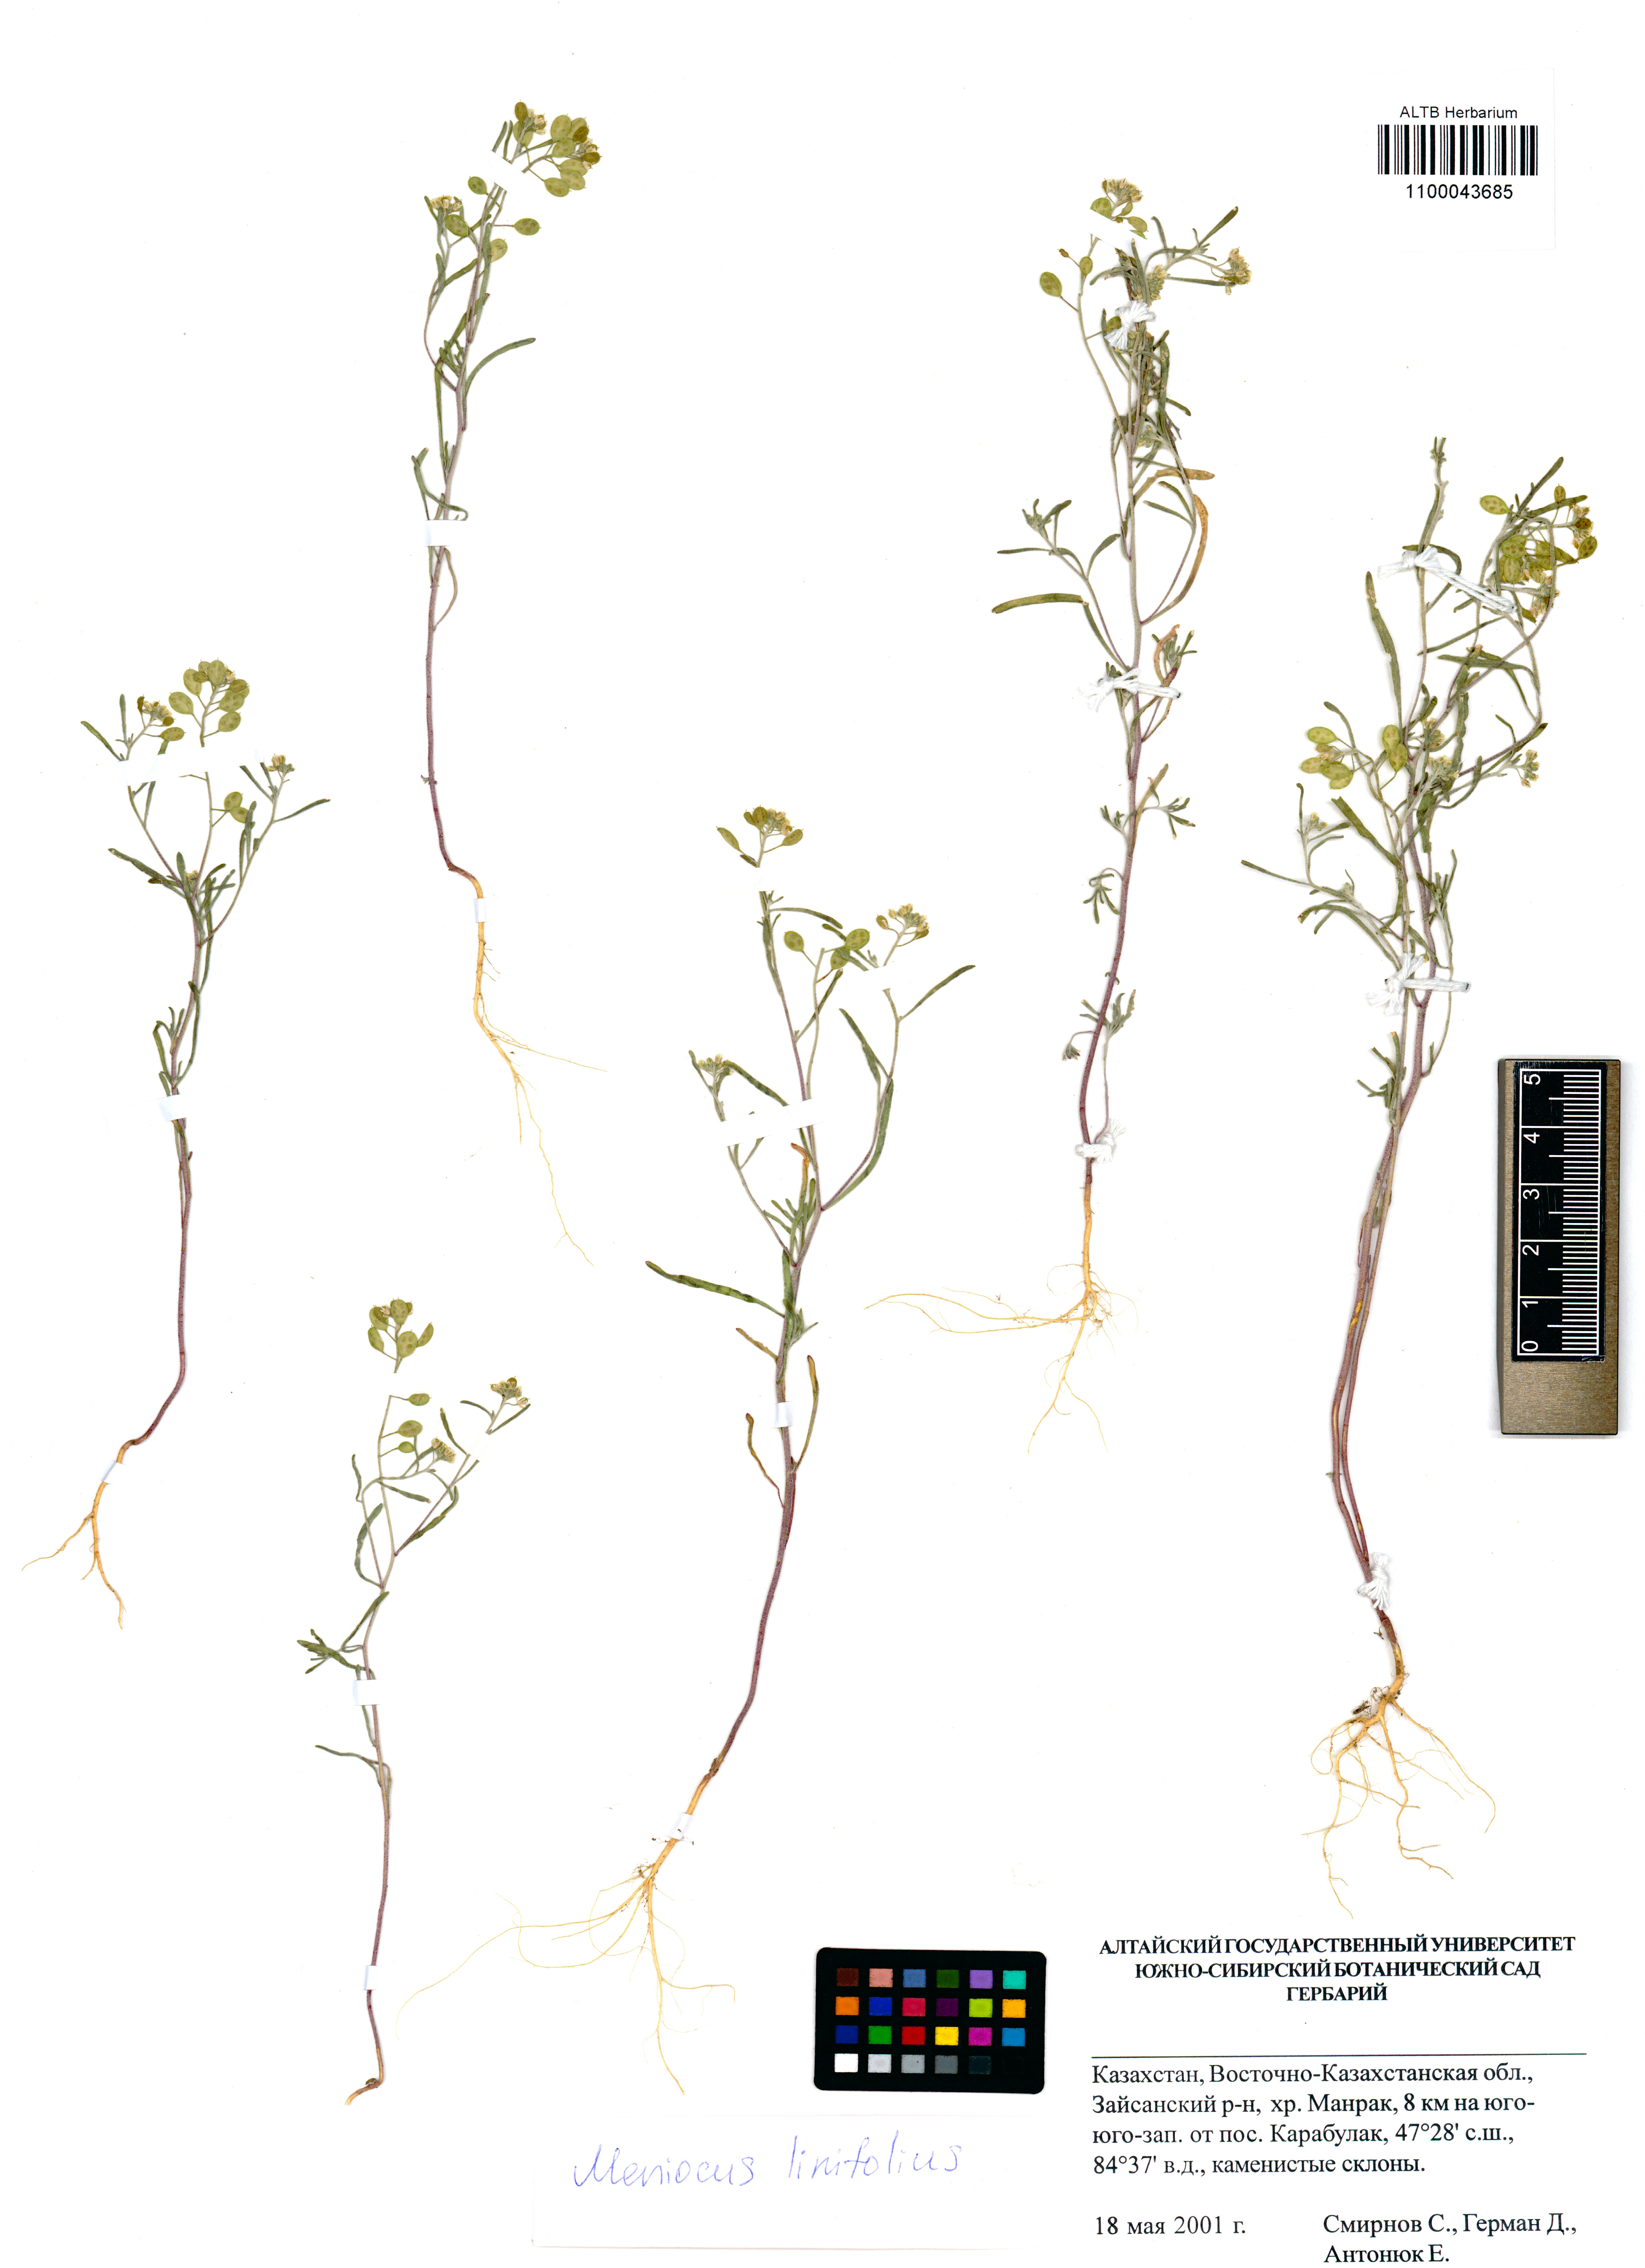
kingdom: Plantae
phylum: Tracheophyta
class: Magnoliopsida
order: Brassicales
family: Brassicaceae
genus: Meniocus
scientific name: Meniocus linifolius
